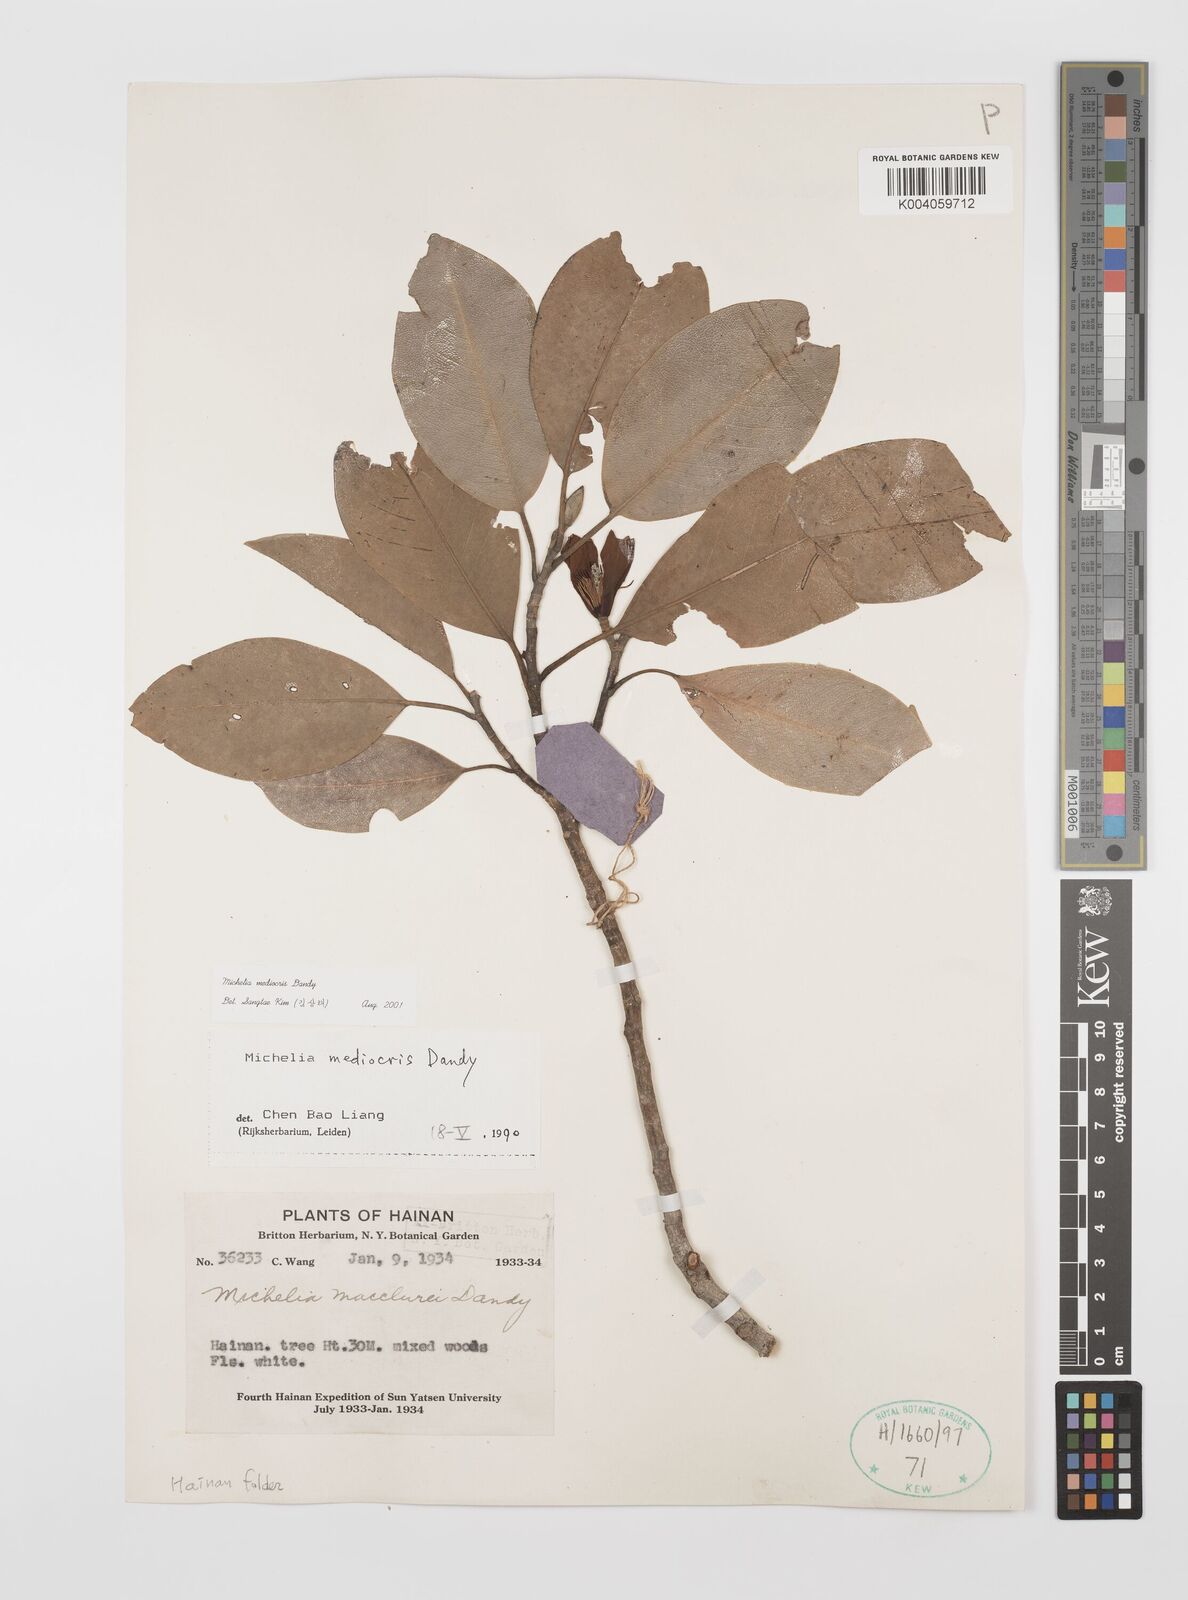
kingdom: Plantae
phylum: Tracheophyta
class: Magnoliopsida
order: Magnoliales
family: Magnoliaceae
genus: Magnolia
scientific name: Magnolia mediocris
